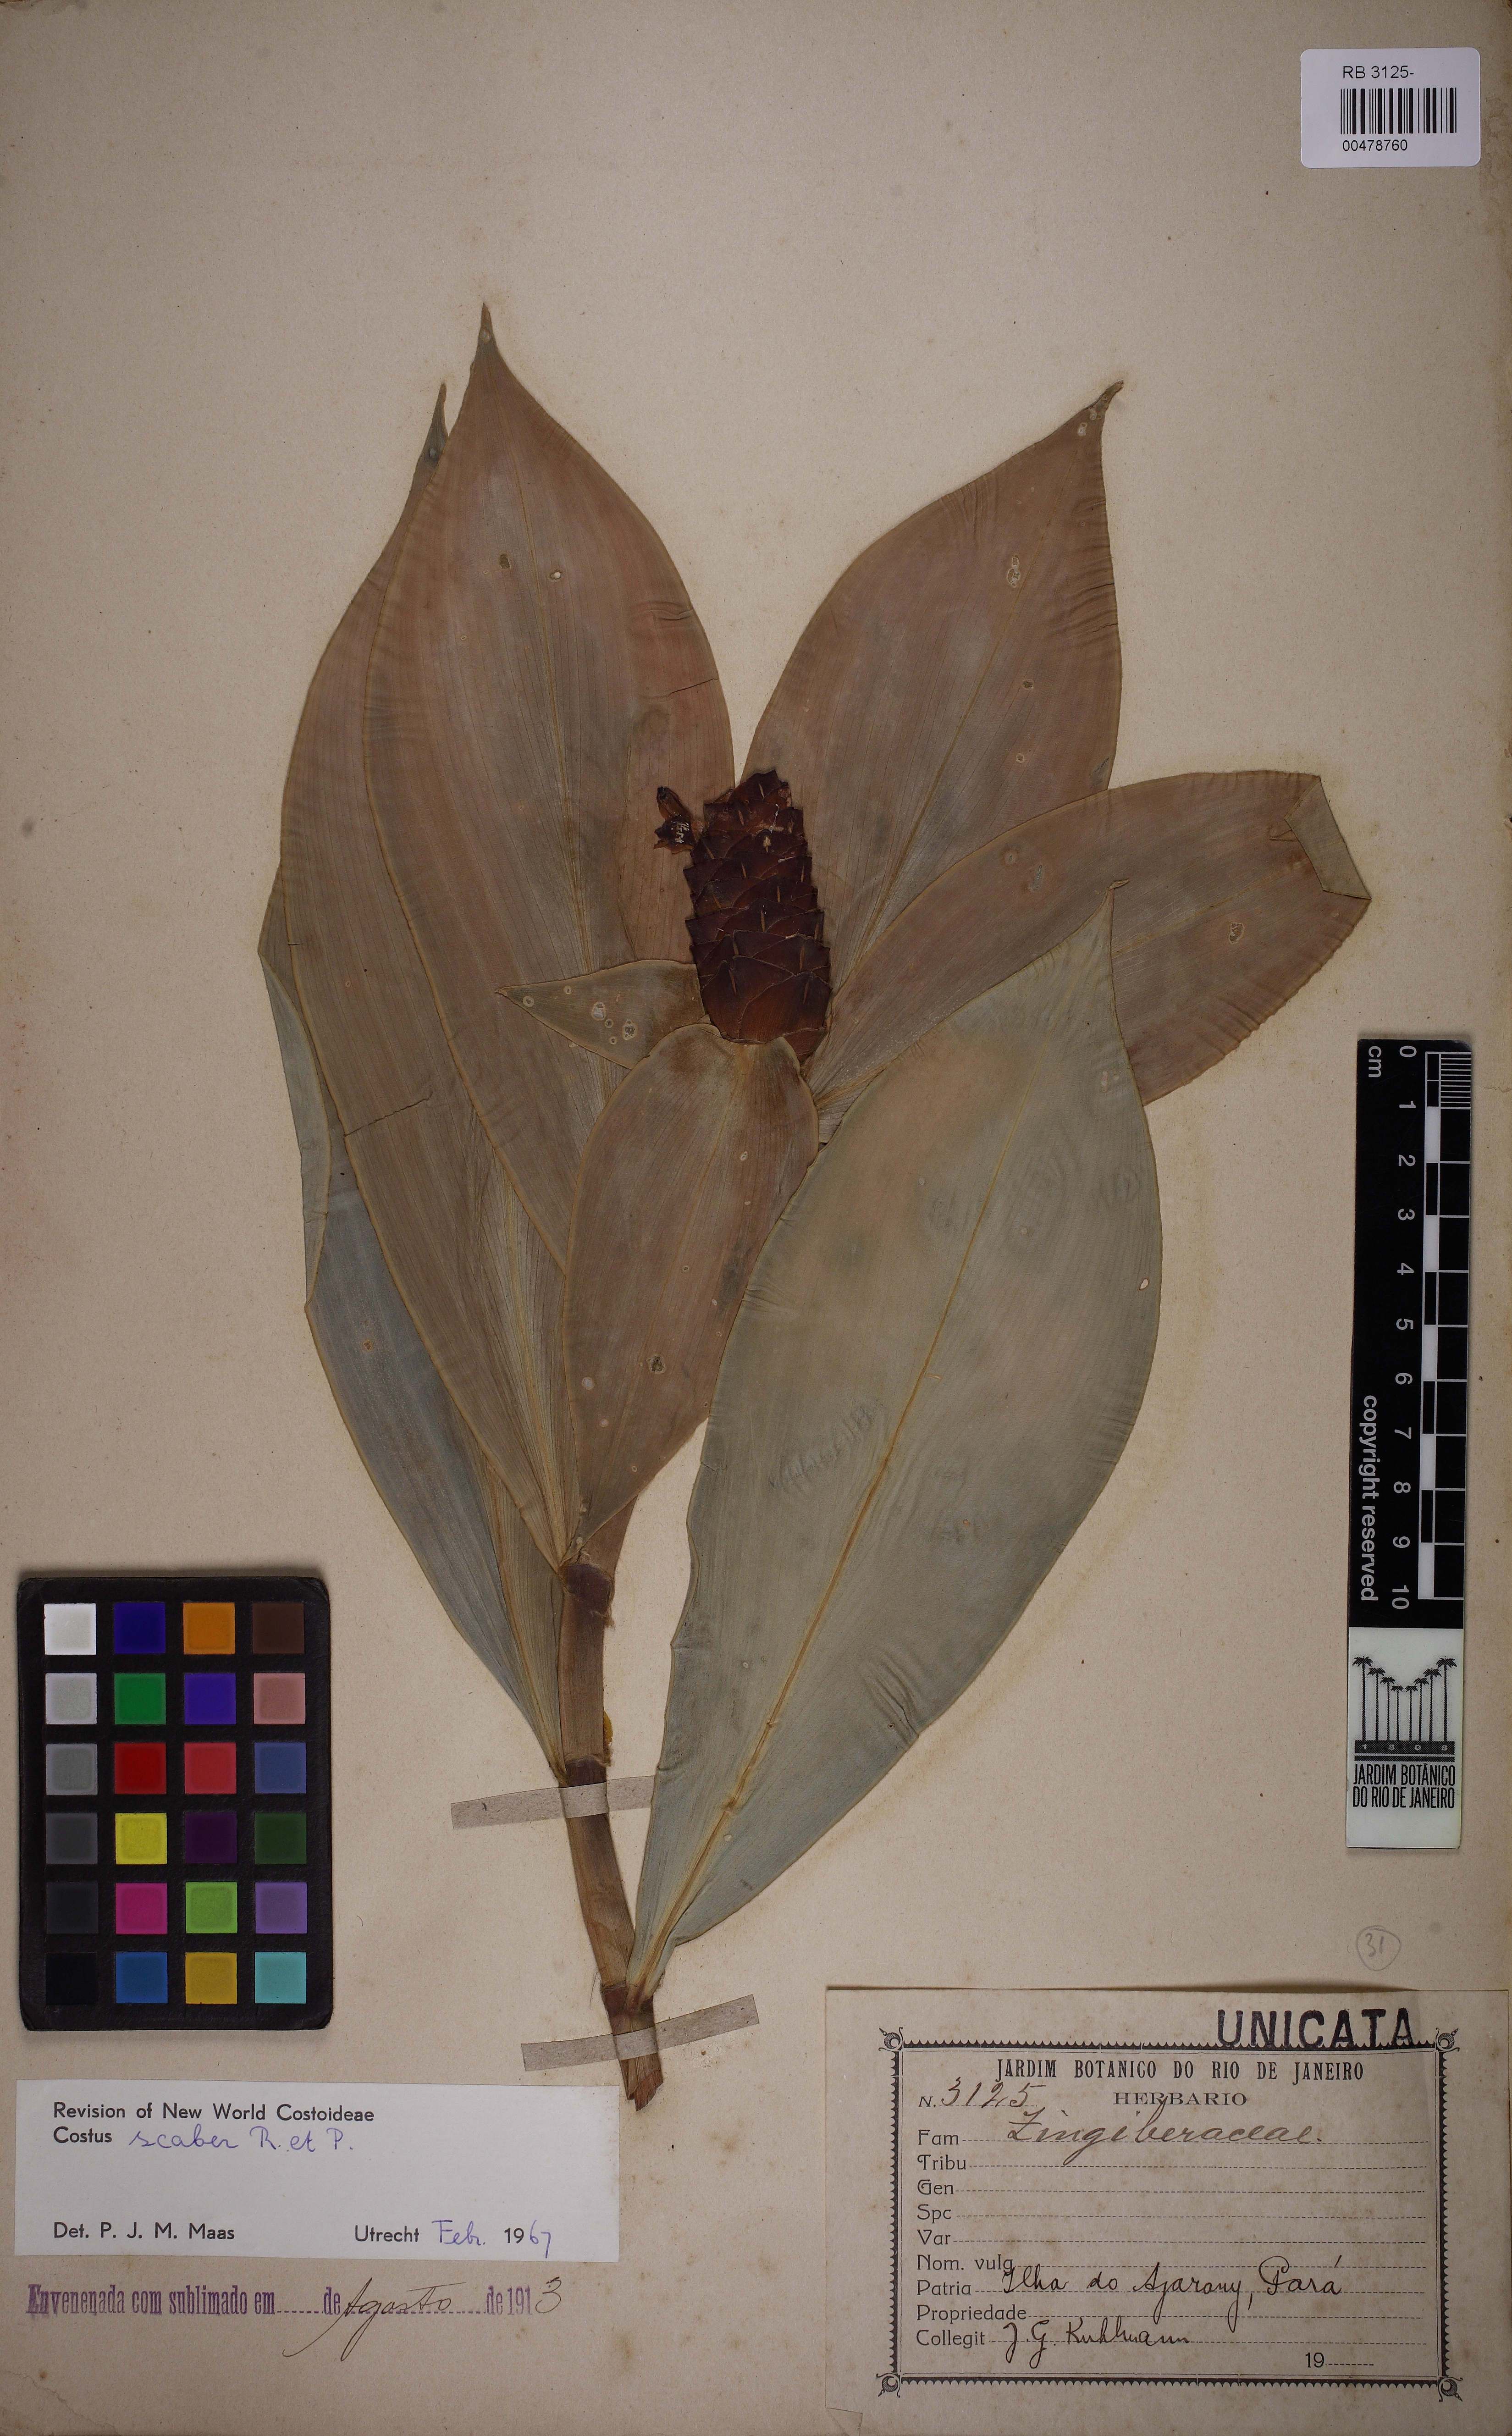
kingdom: Plantae
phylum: Tracheophyta
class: Liliopsida
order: Zingiberales
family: Costaceae
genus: Costus
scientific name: Costus scaber
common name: Spiral head ginger
